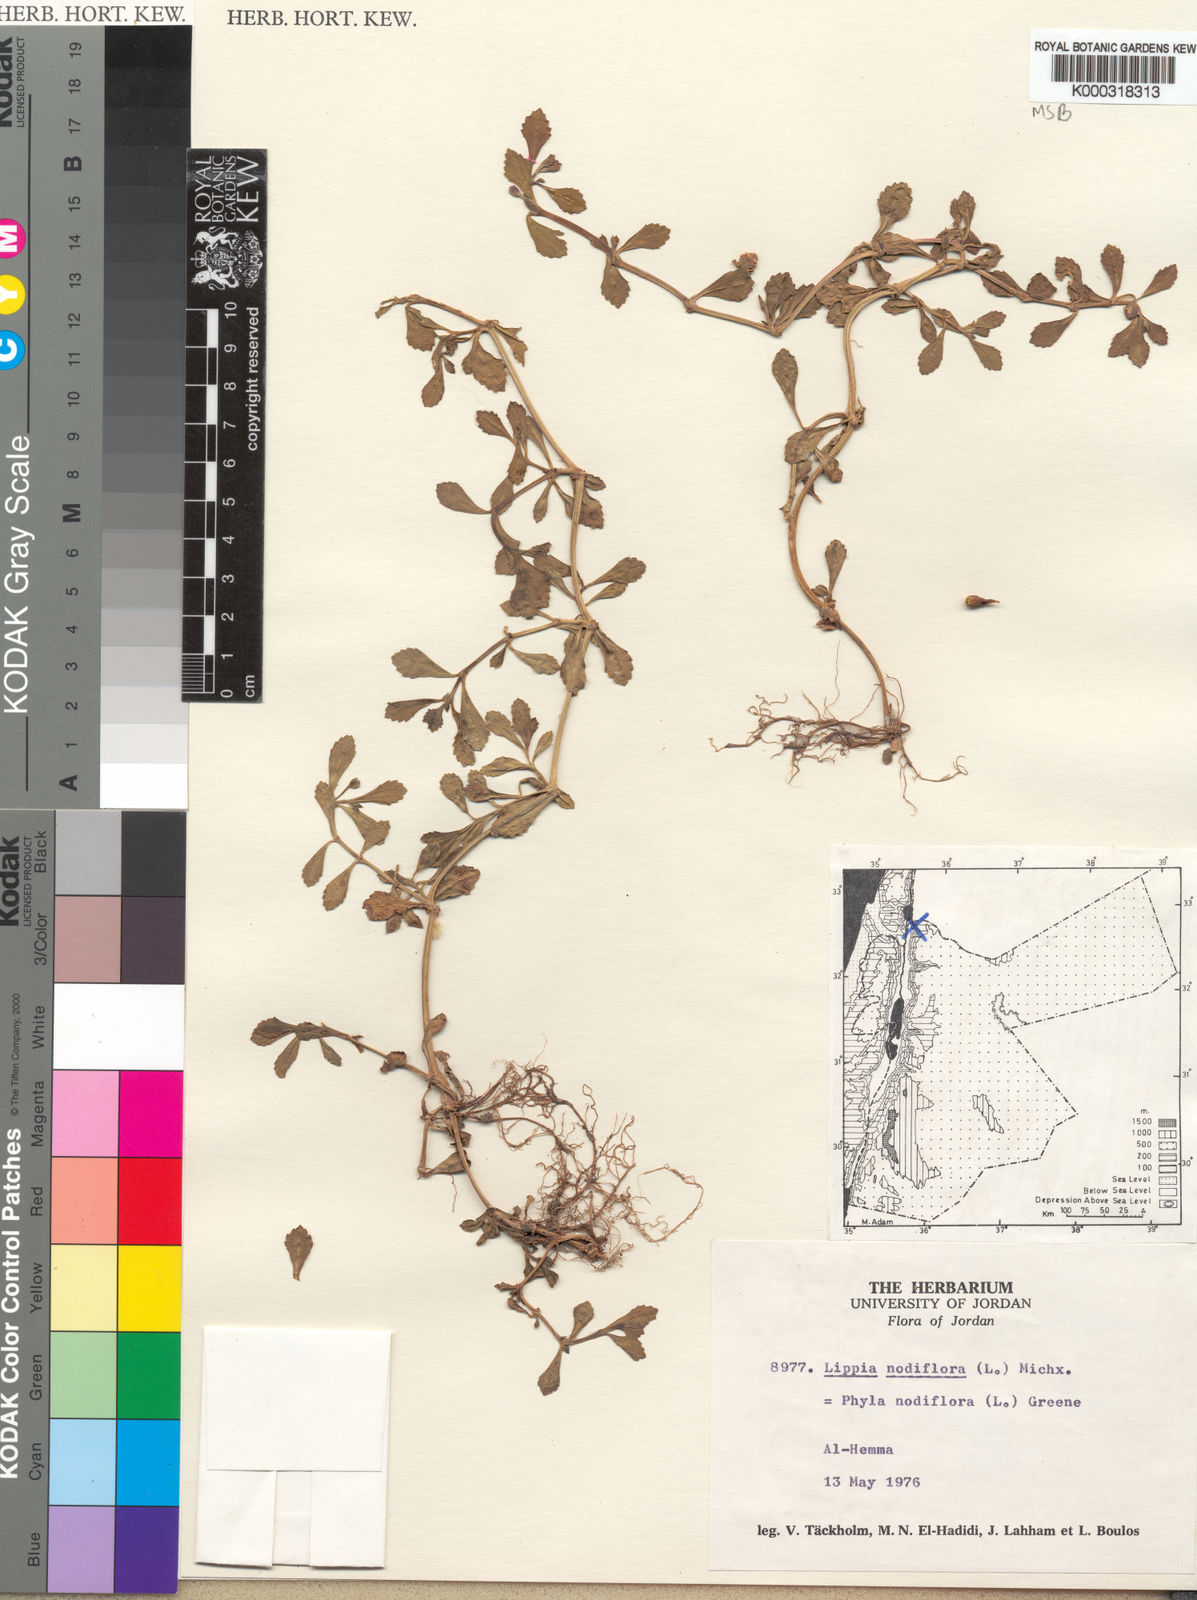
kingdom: Plantae
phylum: Tracheophyta
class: Magnoliopsida
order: Lamiales
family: Verbenaceae
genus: Phyla
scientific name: Phyla nodiflora
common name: Frogfruit
